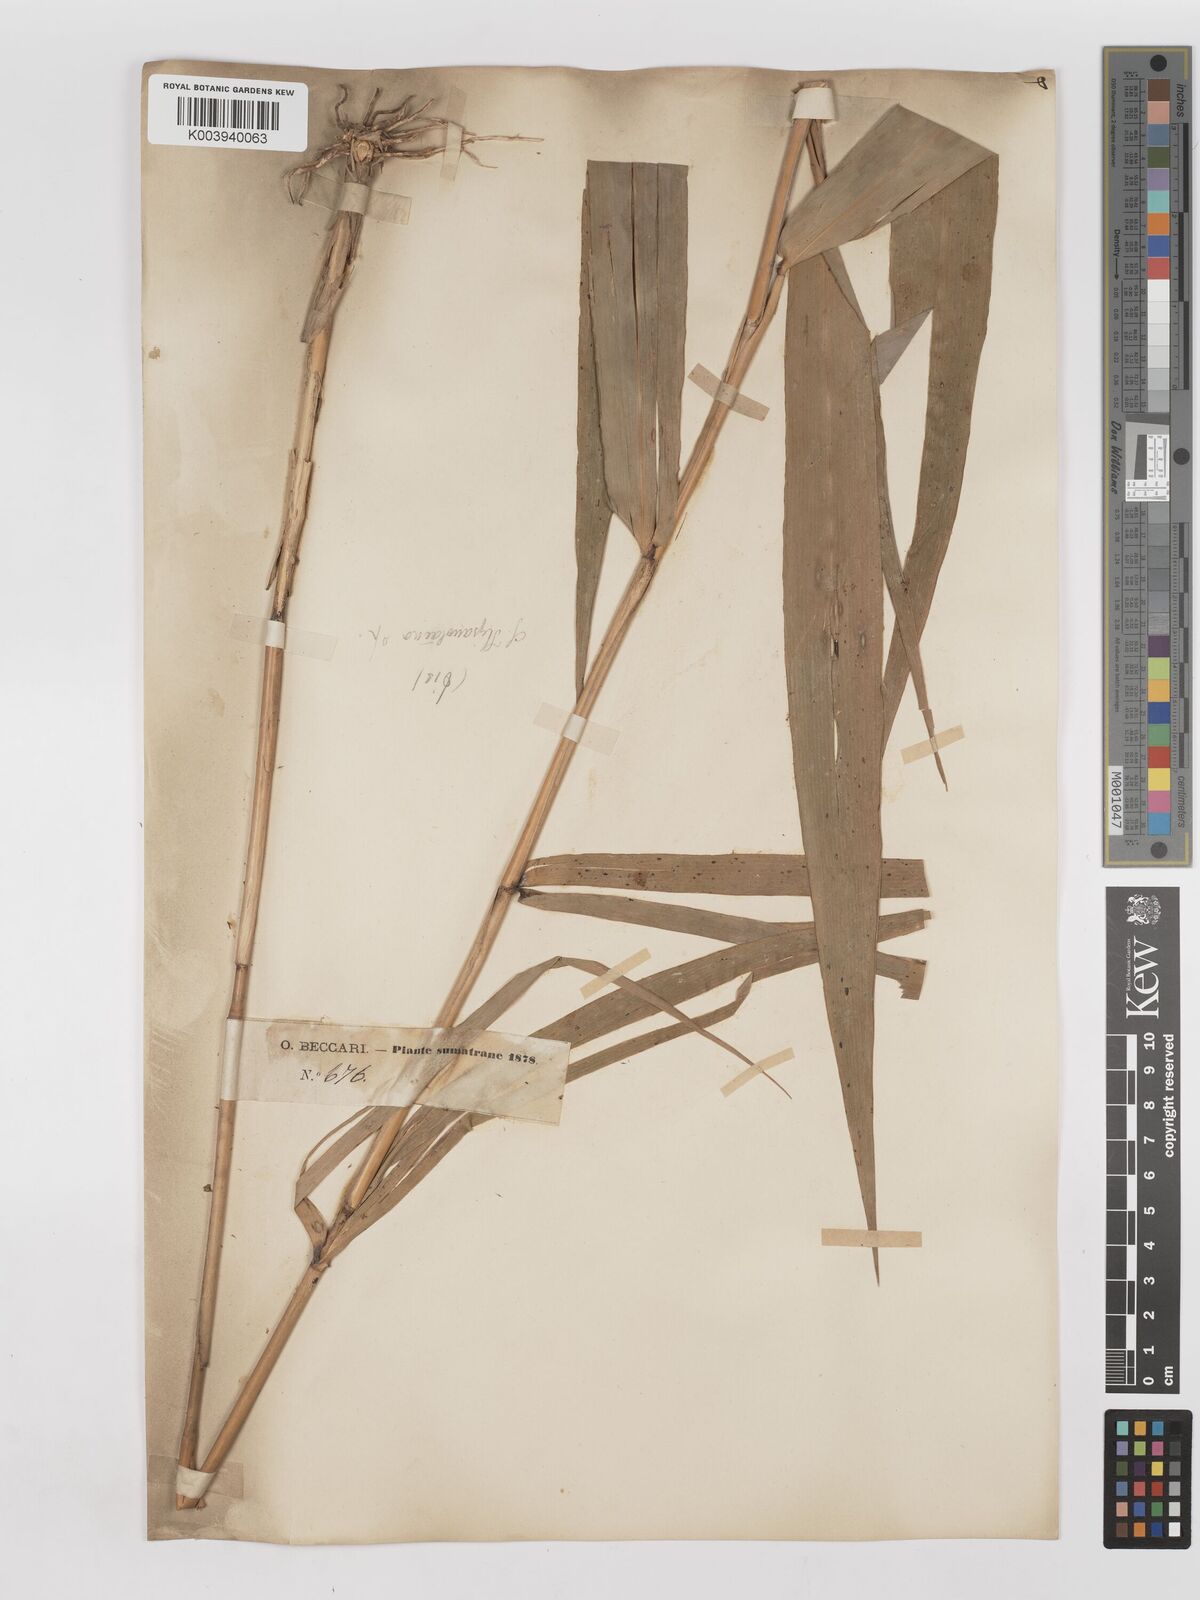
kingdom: Plantae
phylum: Tracheophyta
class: Liliopsida
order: Poales
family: Poaceae
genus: Thysanolaena
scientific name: Thysanolaena latifolia
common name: Tiger grass
